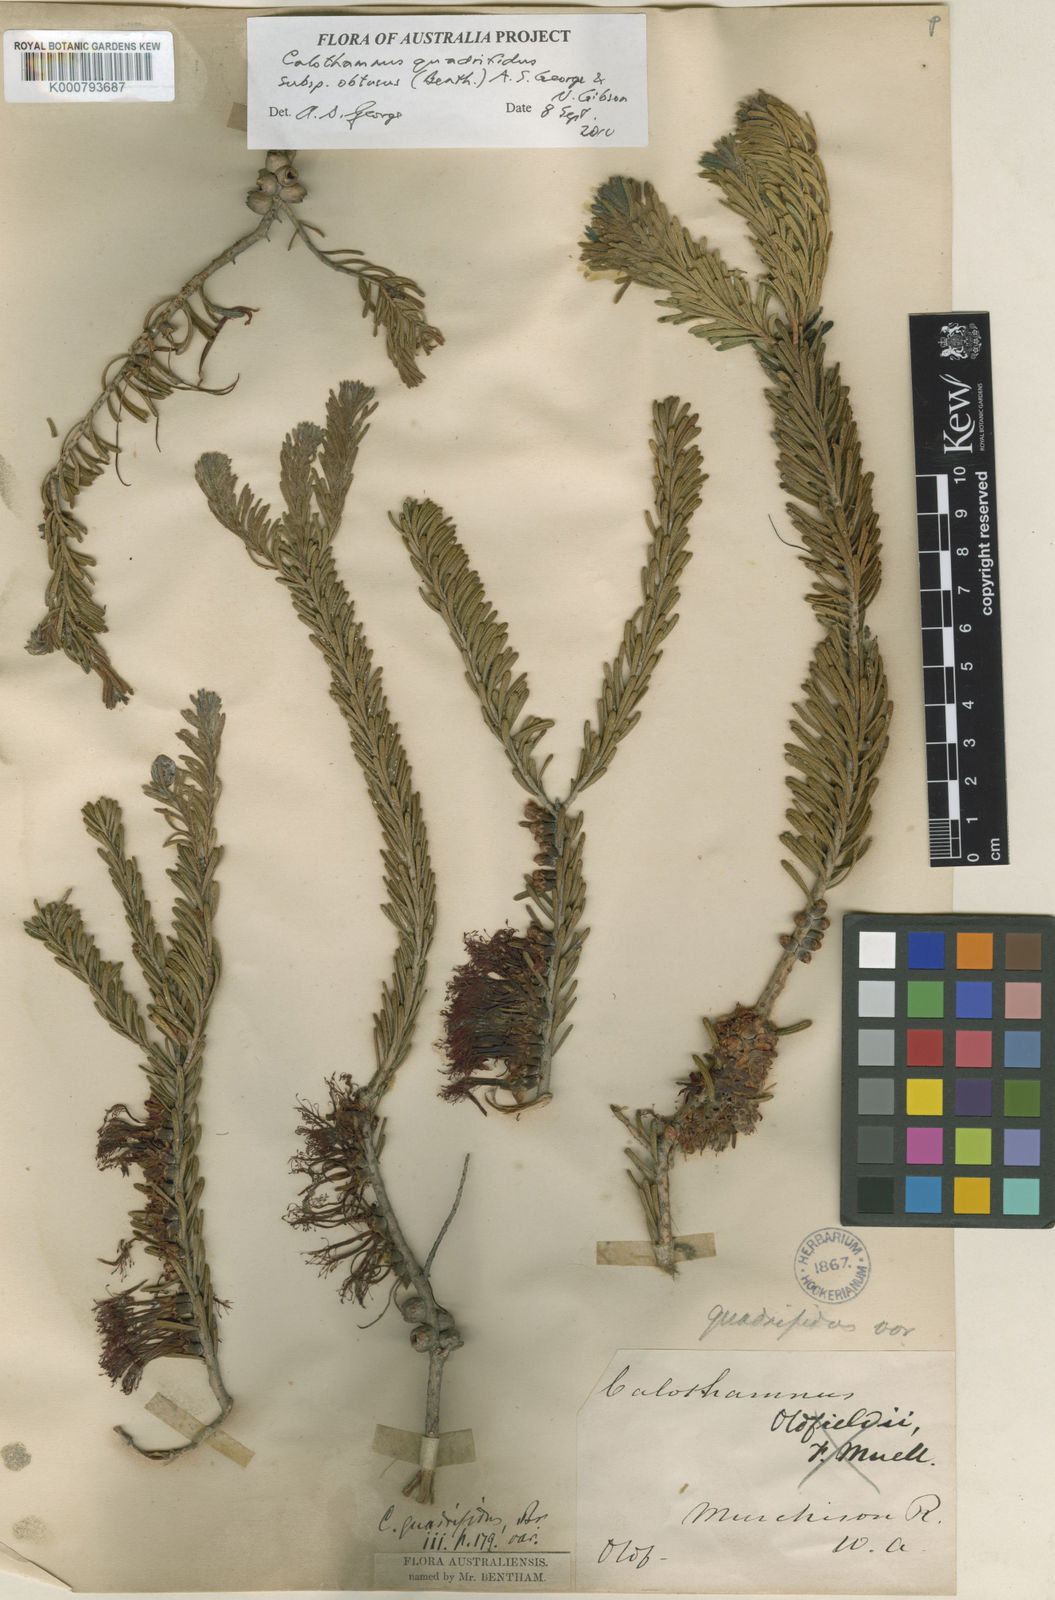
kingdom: Plantae
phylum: Tracheophyta
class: Magnoliopsida
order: Myrtales
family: Myrtaceae
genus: Melaleuca
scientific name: Melaleuca quadrifida
